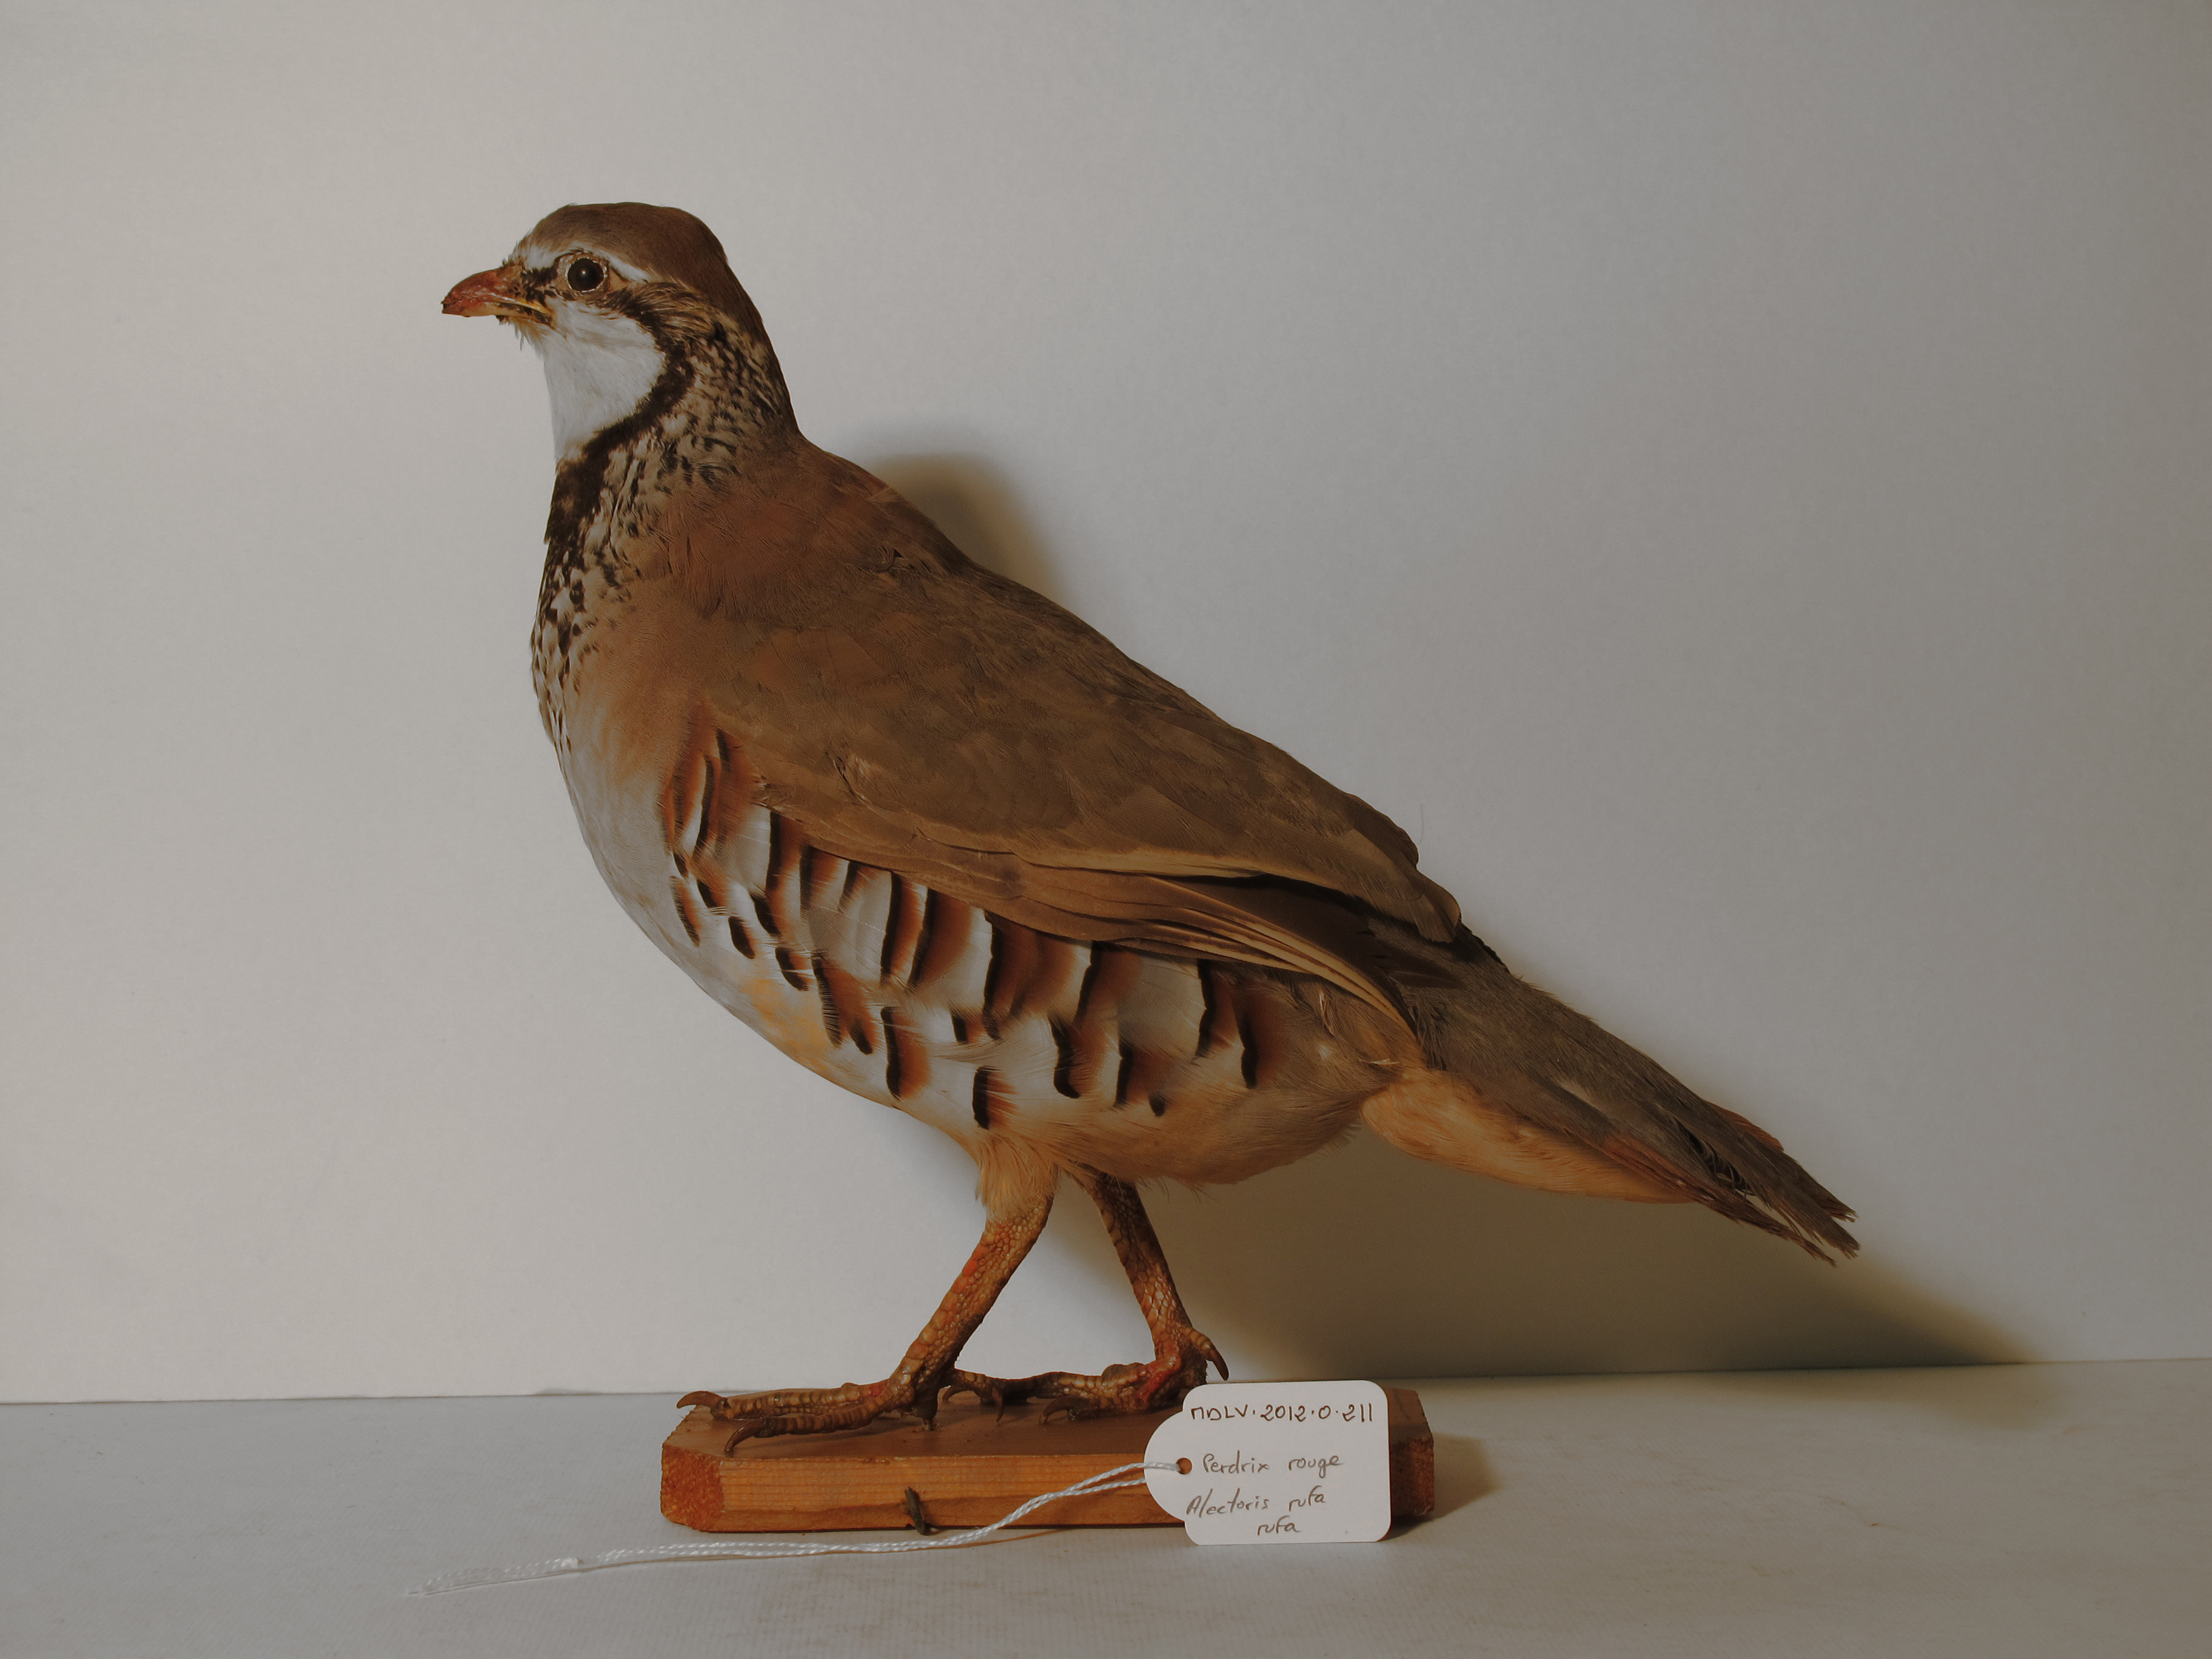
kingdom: Animalia
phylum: Chordata
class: Aves
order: Galliformes
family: Phasianidae
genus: Alectoris
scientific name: Alectoris rufa
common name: Red-legged Partridge
